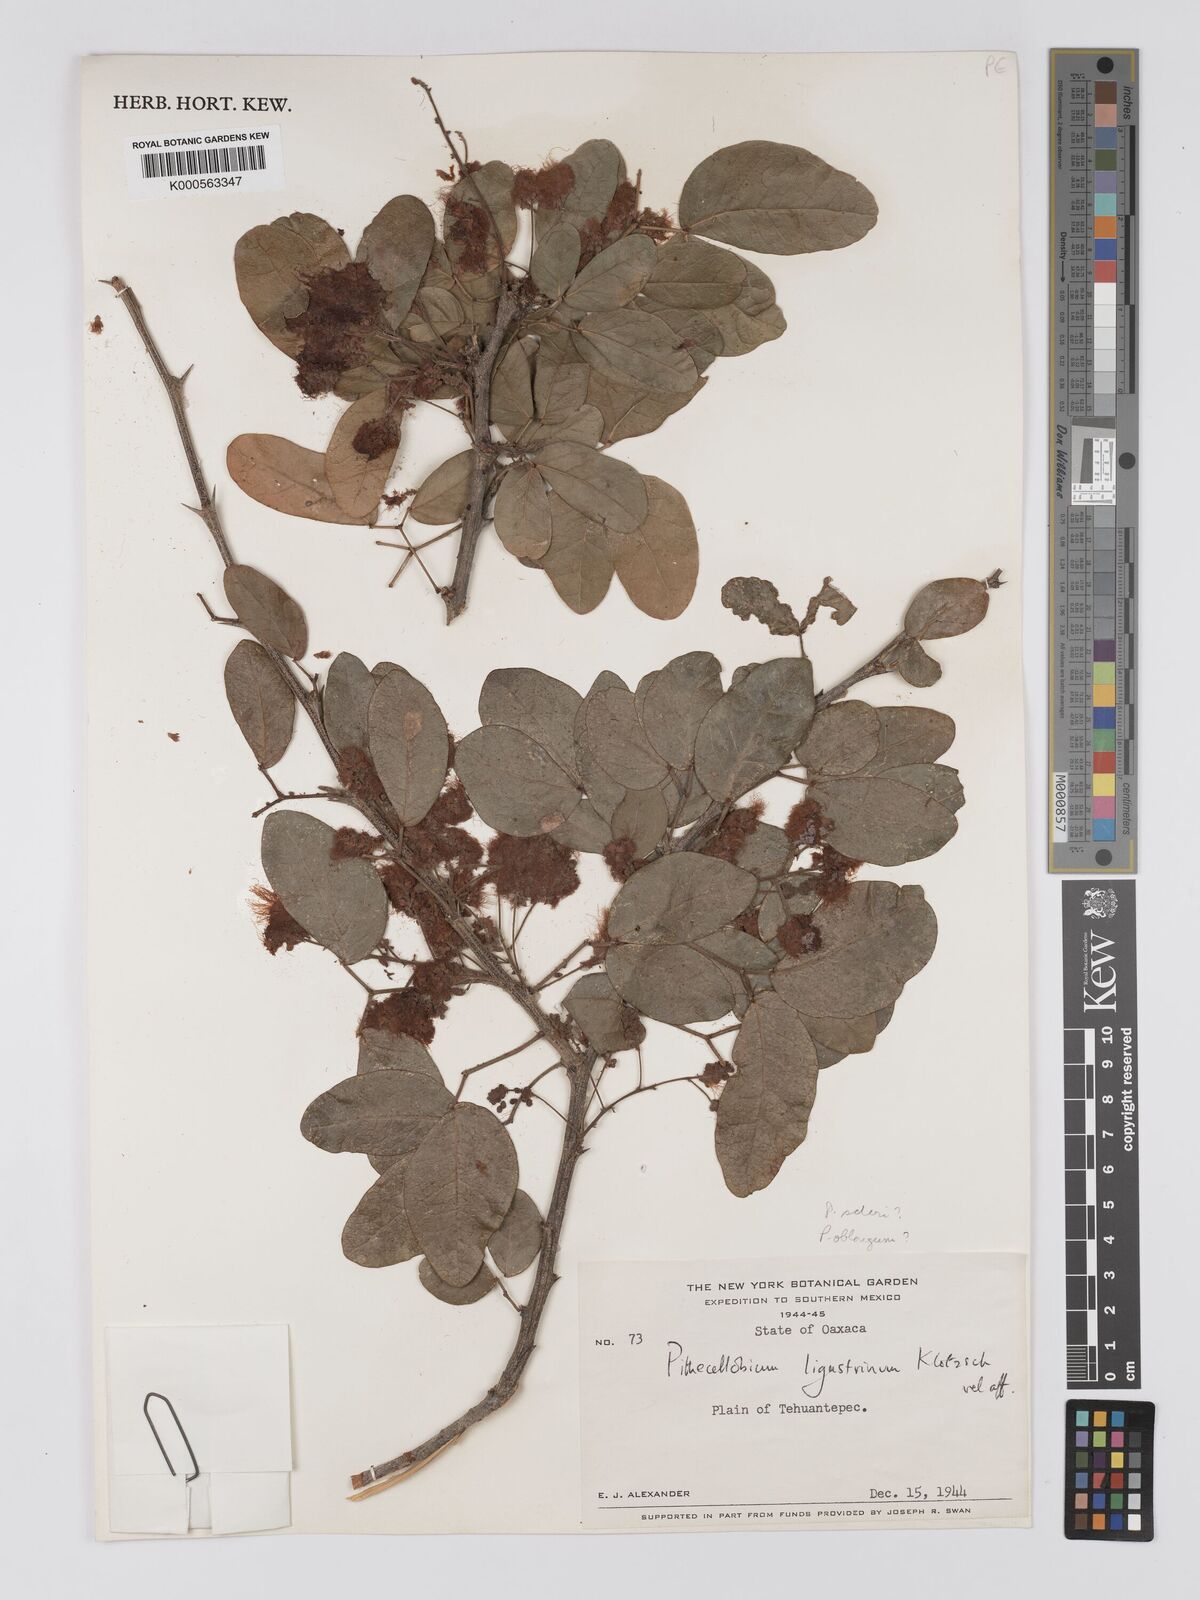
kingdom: Plantae
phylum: Tracheophyta
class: Magnoliopsida
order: Fabales
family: Fabaceae
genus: Pithecellobium
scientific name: Pithecellobium unguis-cati
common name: Cat's-claw
